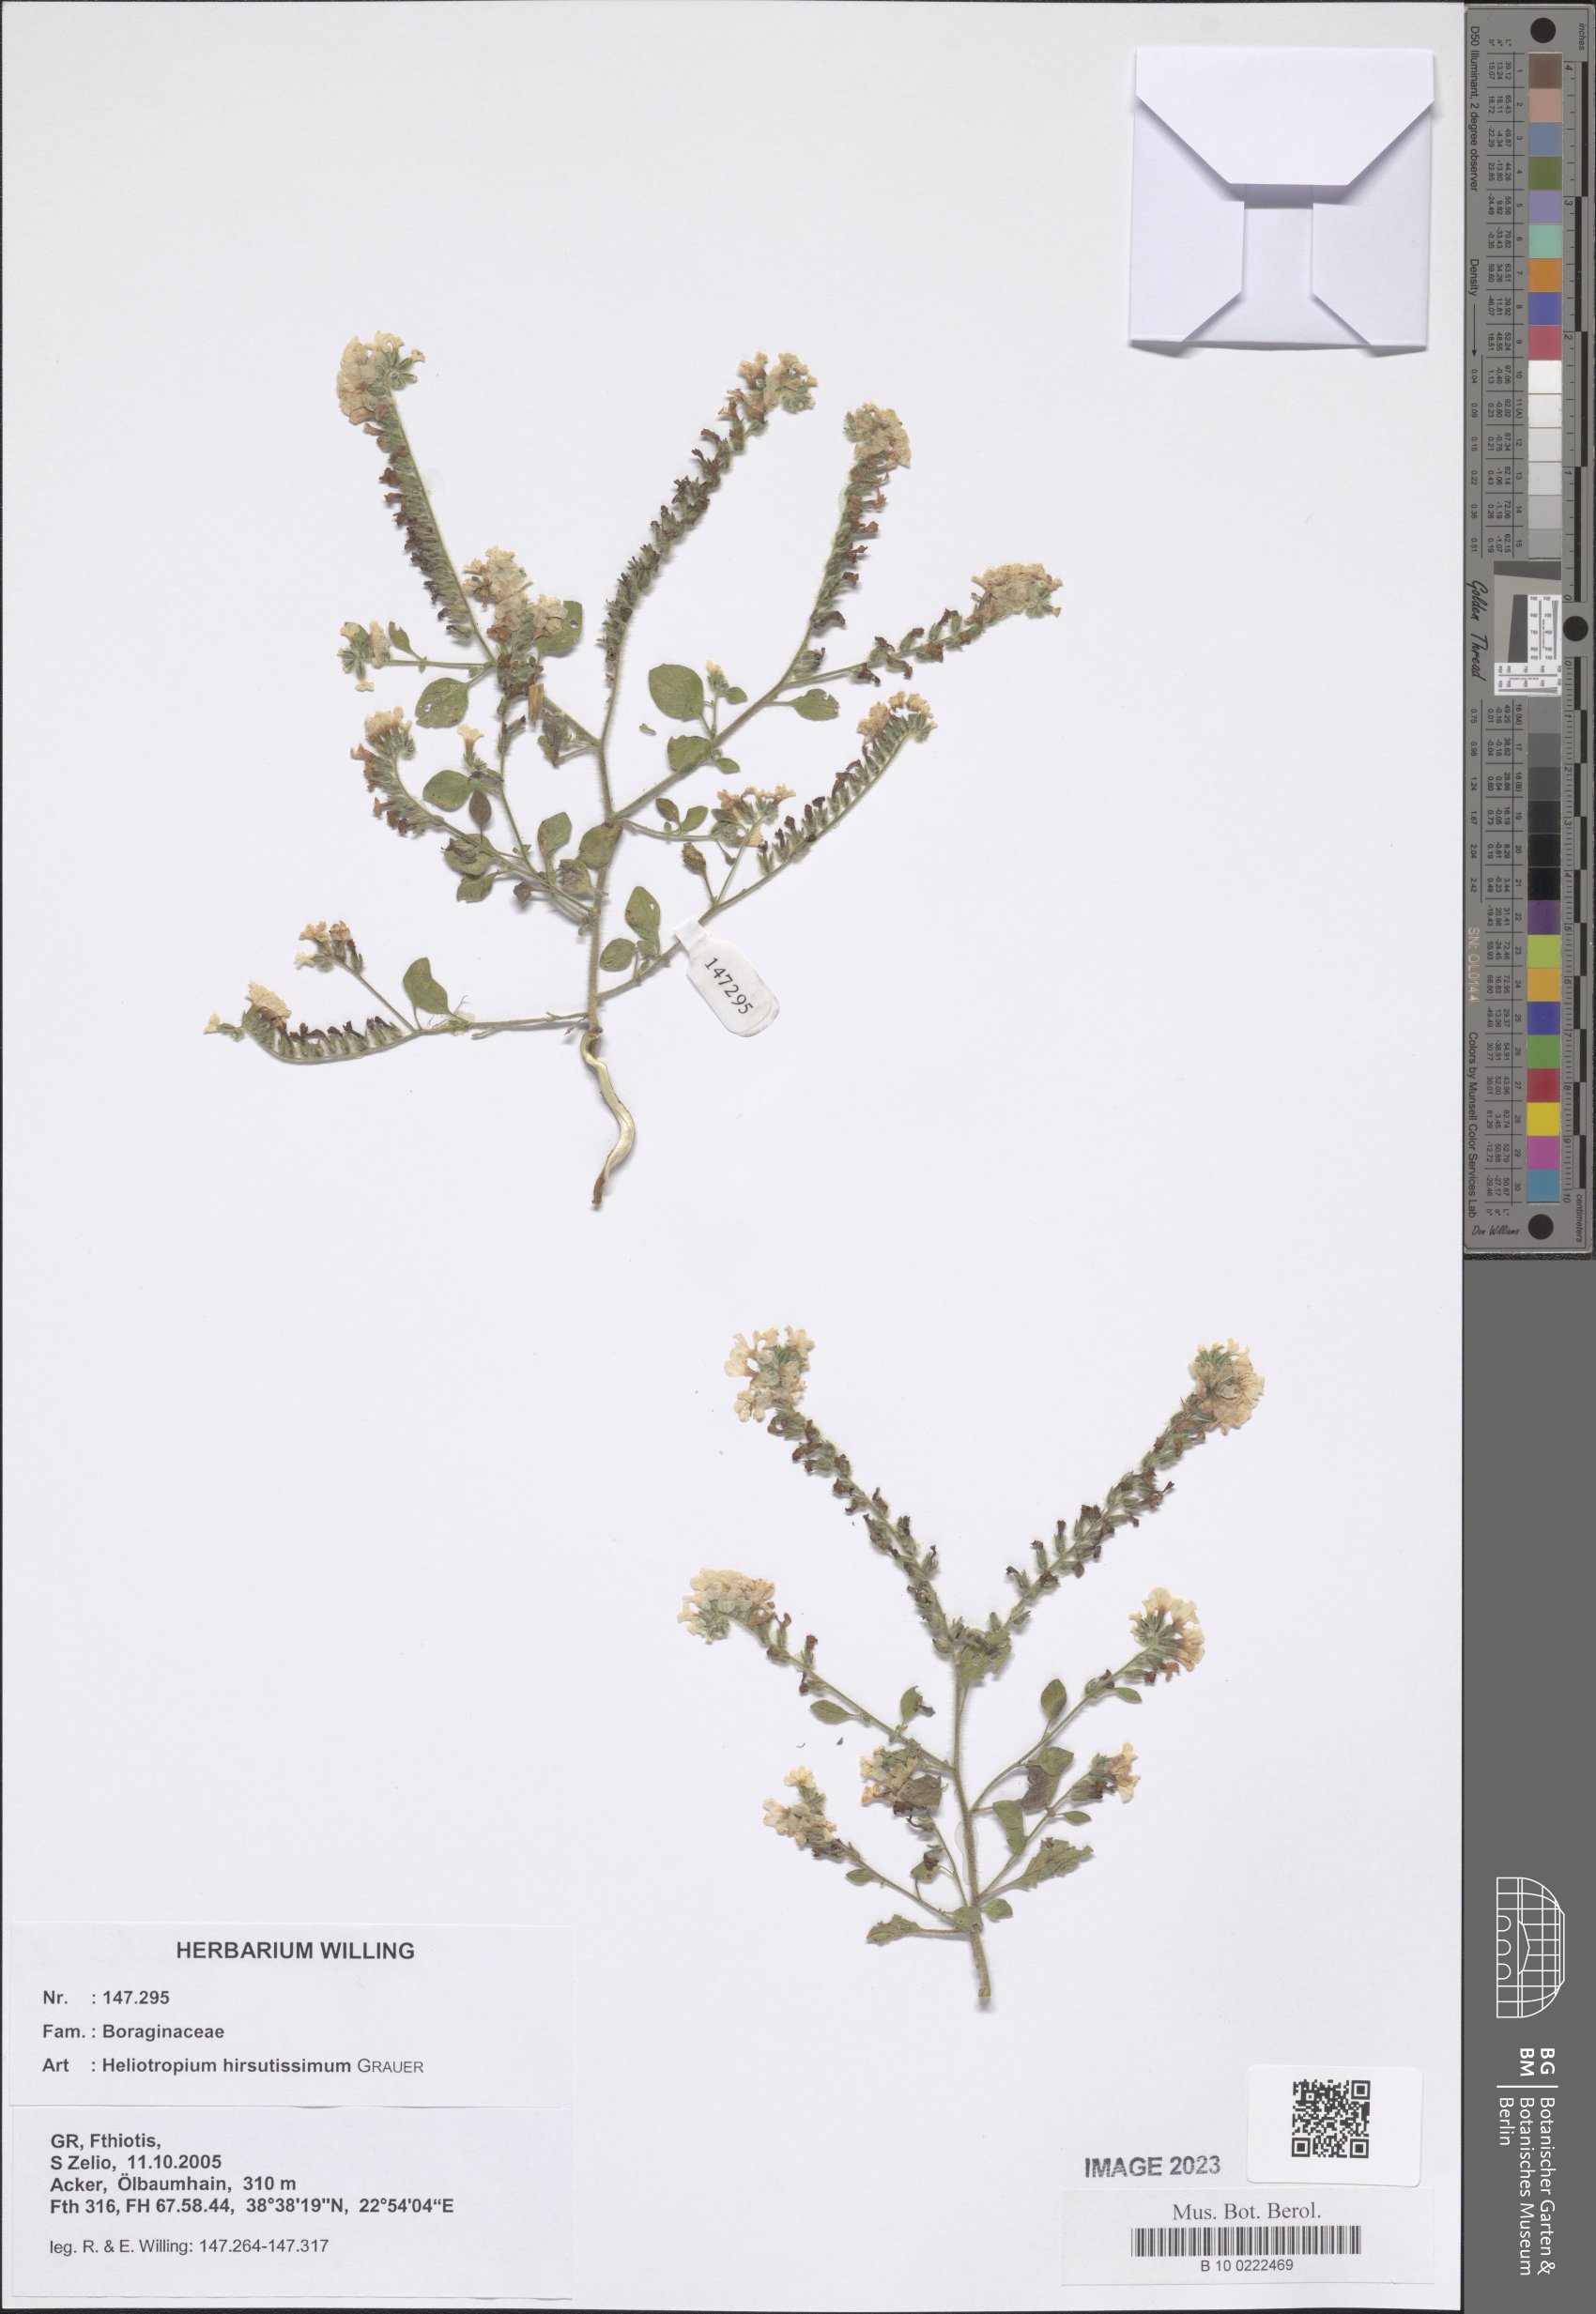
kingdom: Plantae
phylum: Tracheophyta
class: Magnoliopsida
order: Boraginales
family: Heliotropiaceae
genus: Heliotropium
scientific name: Heliotropium hirsutissimum
